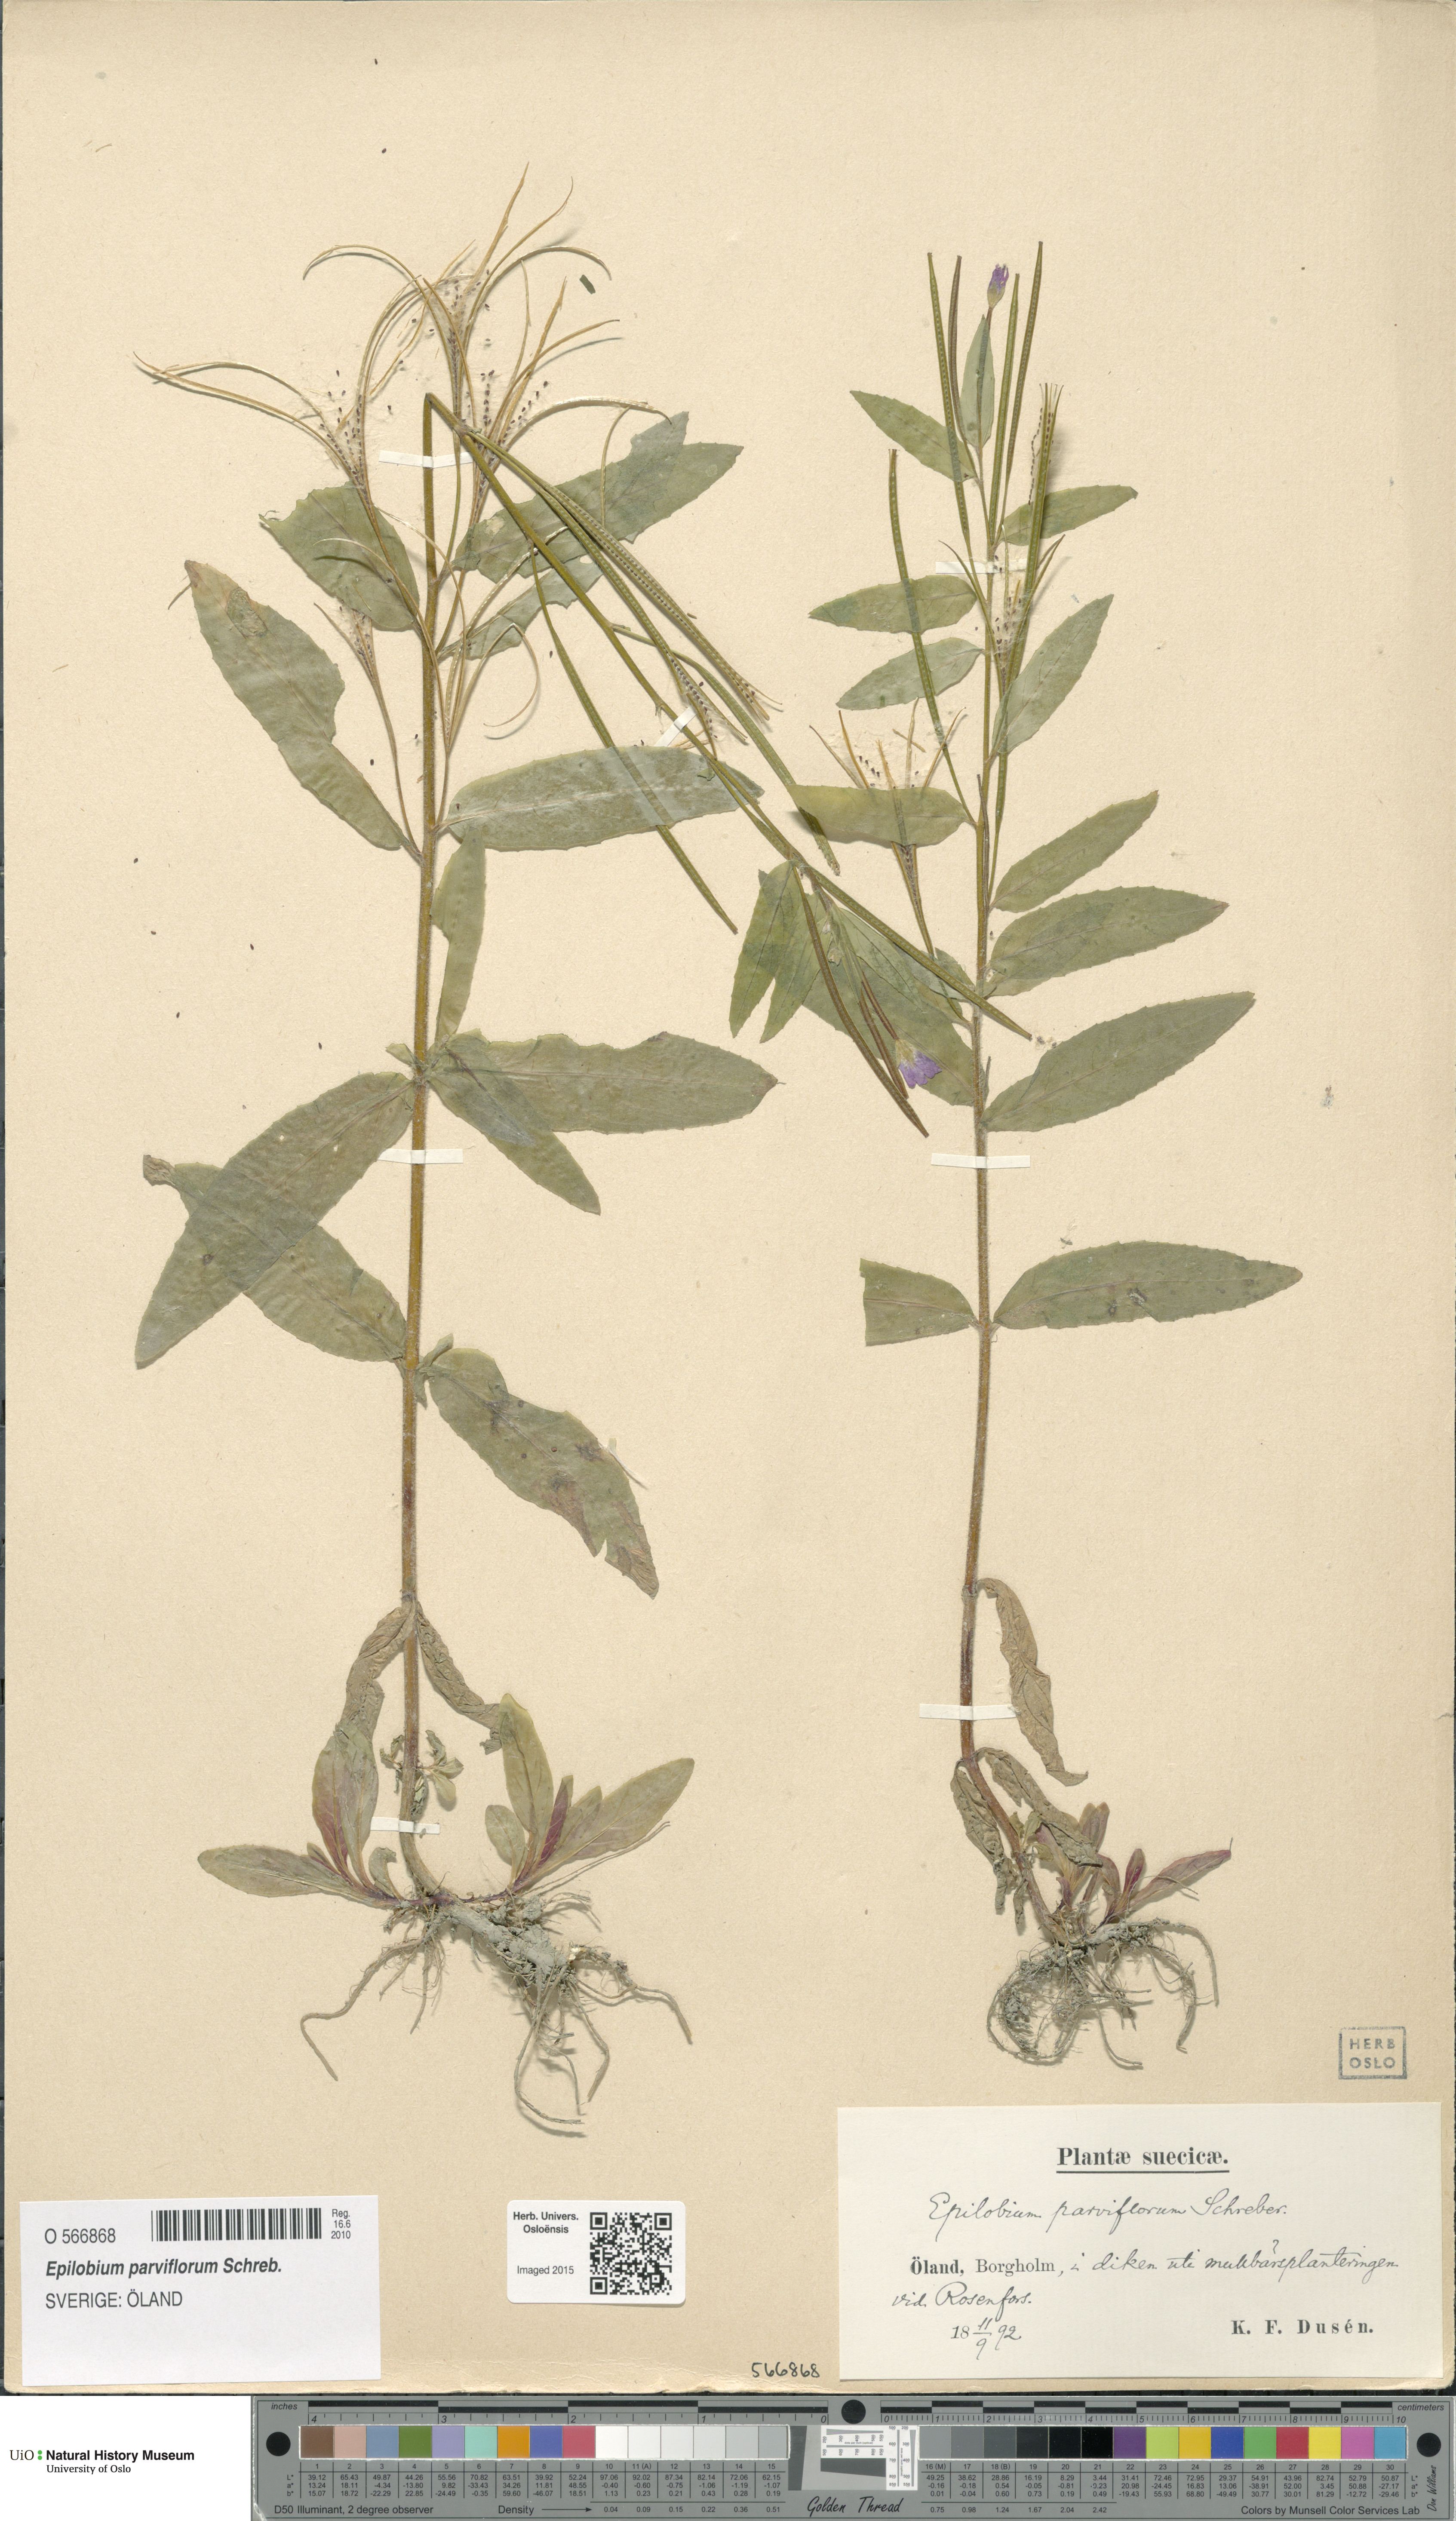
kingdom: Plantae
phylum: Tracheophyta
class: Magnoliopsida
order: Myrtales
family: Onagraceae
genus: Epilobium
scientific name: Epilobium parviflorum
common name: Hoary willowherb
